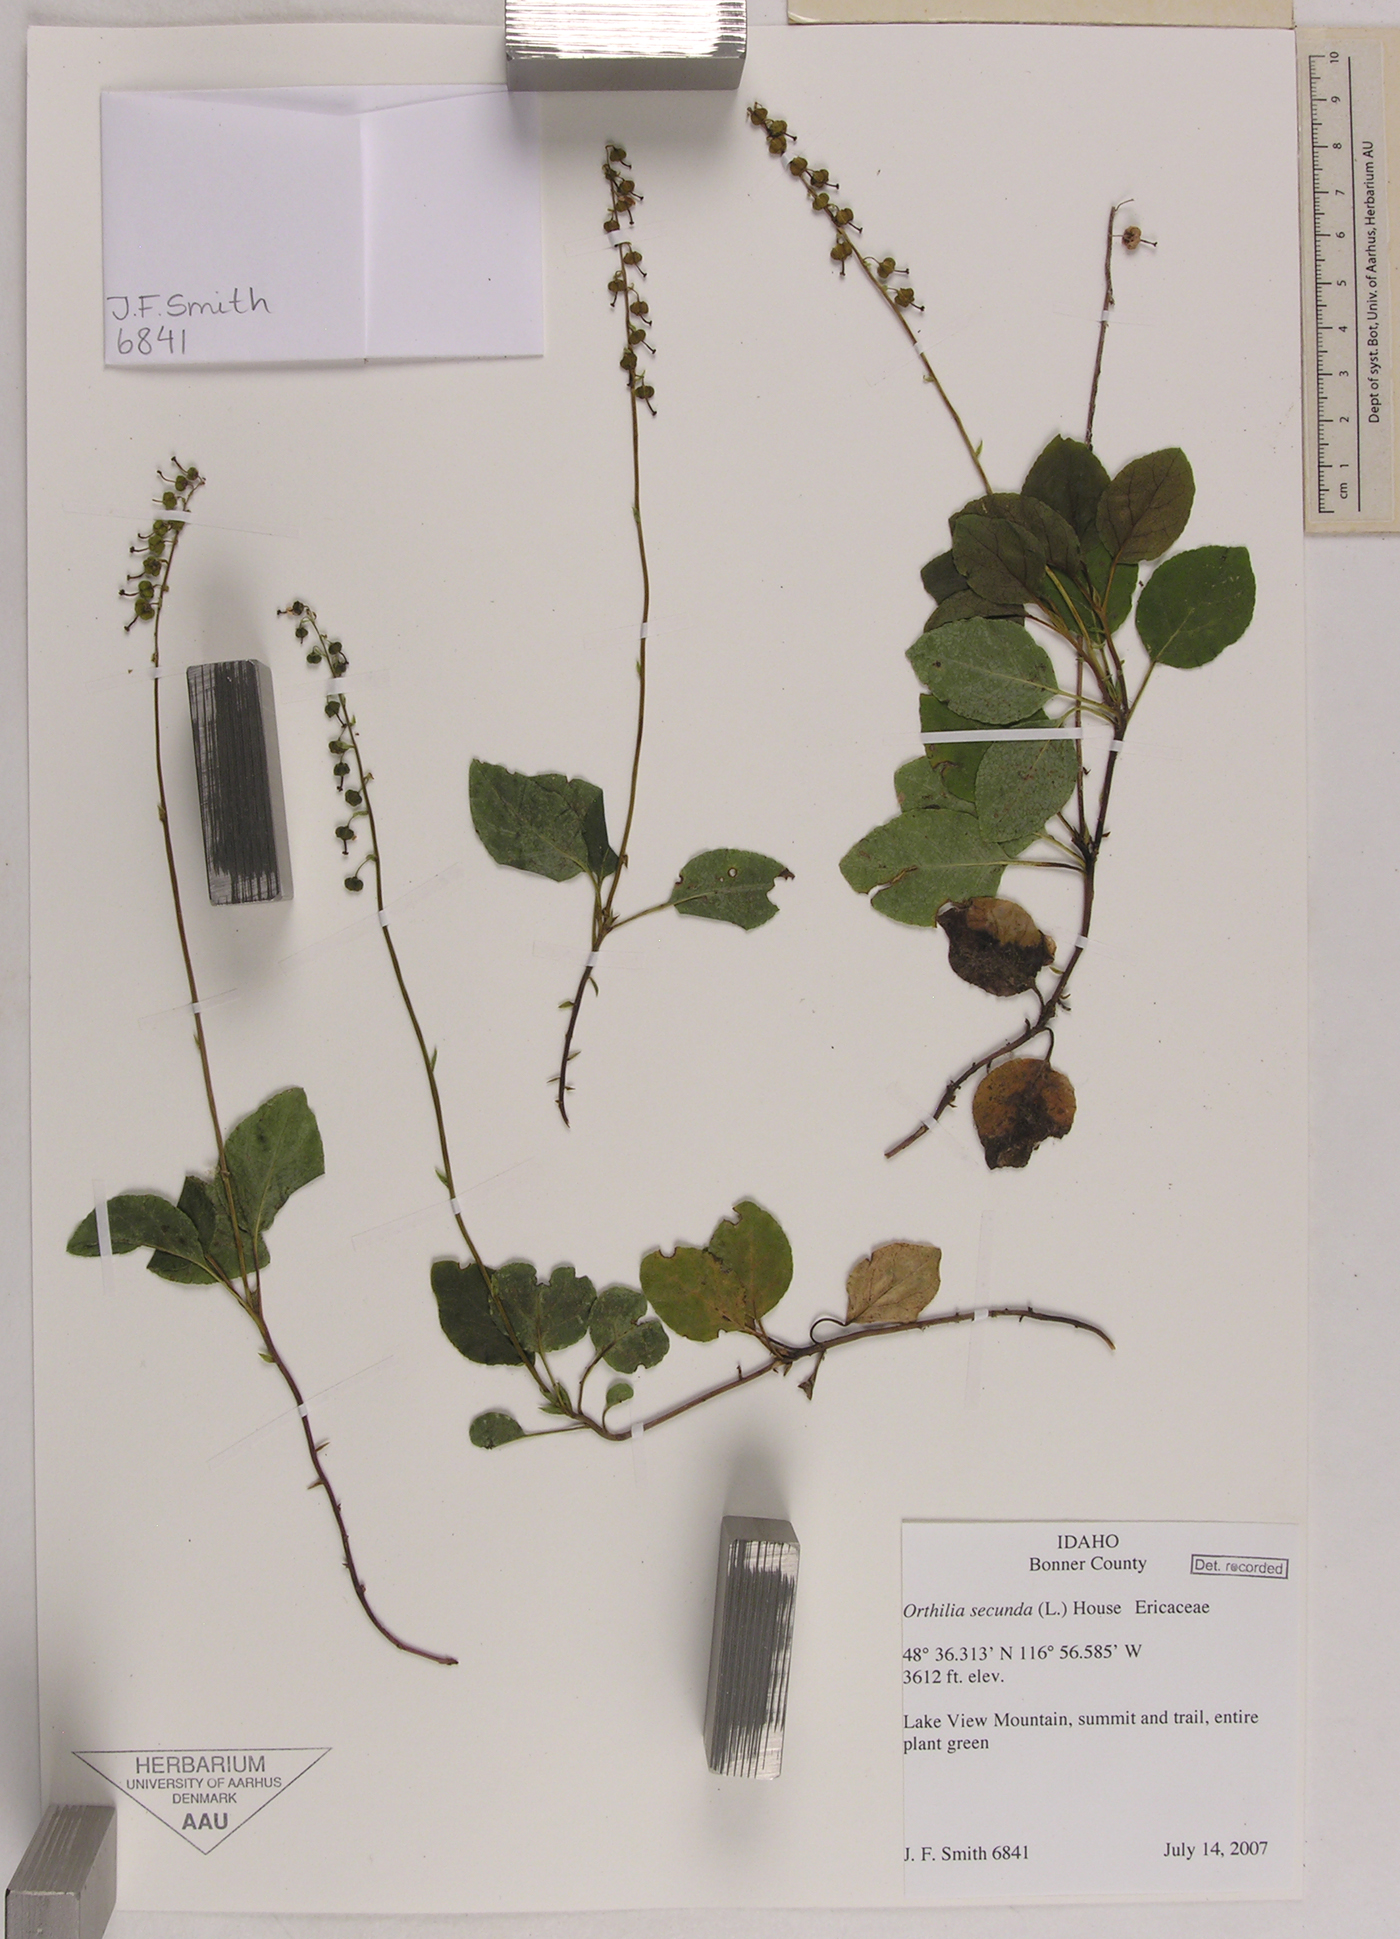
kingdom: Plantae
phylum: Tracheophyta
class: Magnoliopsida
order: Ericales
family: Ericaceae
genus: Orthilia
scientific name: Orthilia secunda
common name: One-sided orthilia
